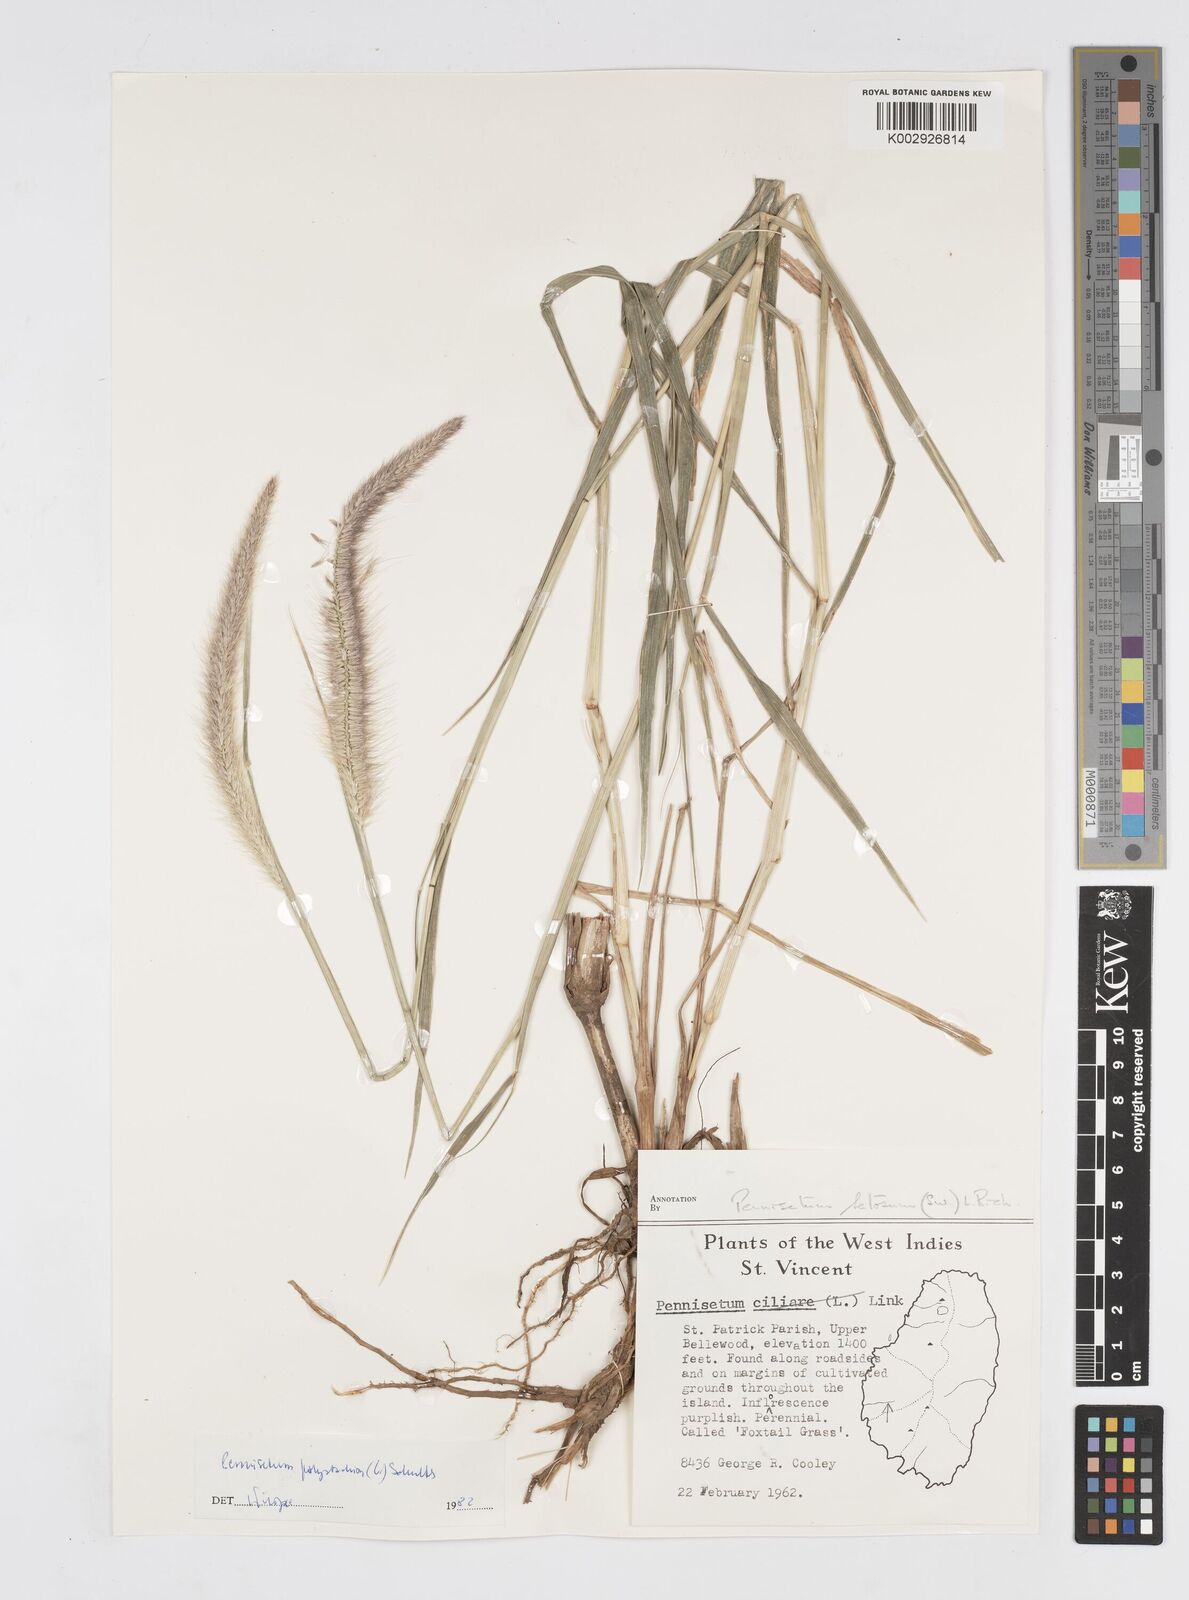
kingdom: Plantae
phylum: Tracheophyta
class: Liliopsida
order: Poales
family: Poaceae
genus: Cenchrus
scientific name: Cenchrus setosus
